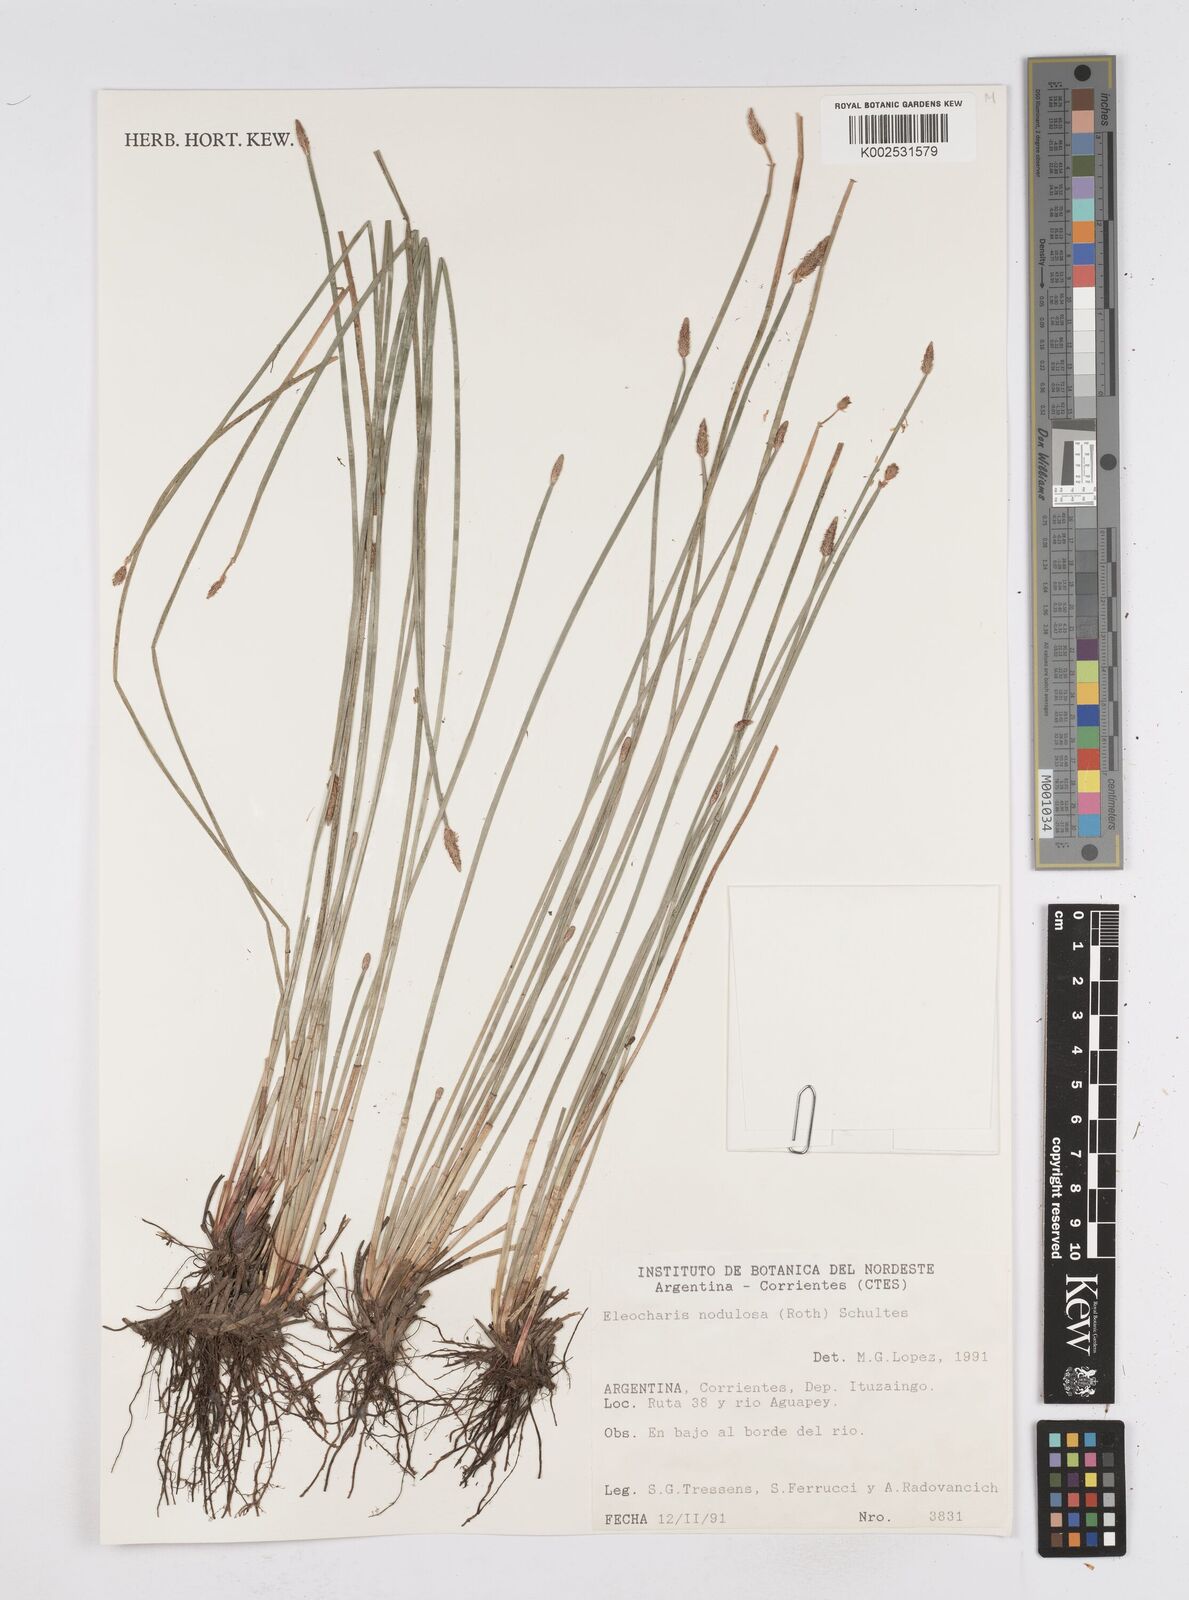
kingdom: Plantae
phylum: Tracheophyta
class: Liliopsida
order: Poales
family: Cyperaceae
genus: Eleocharis
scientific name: Eleocharis montana
